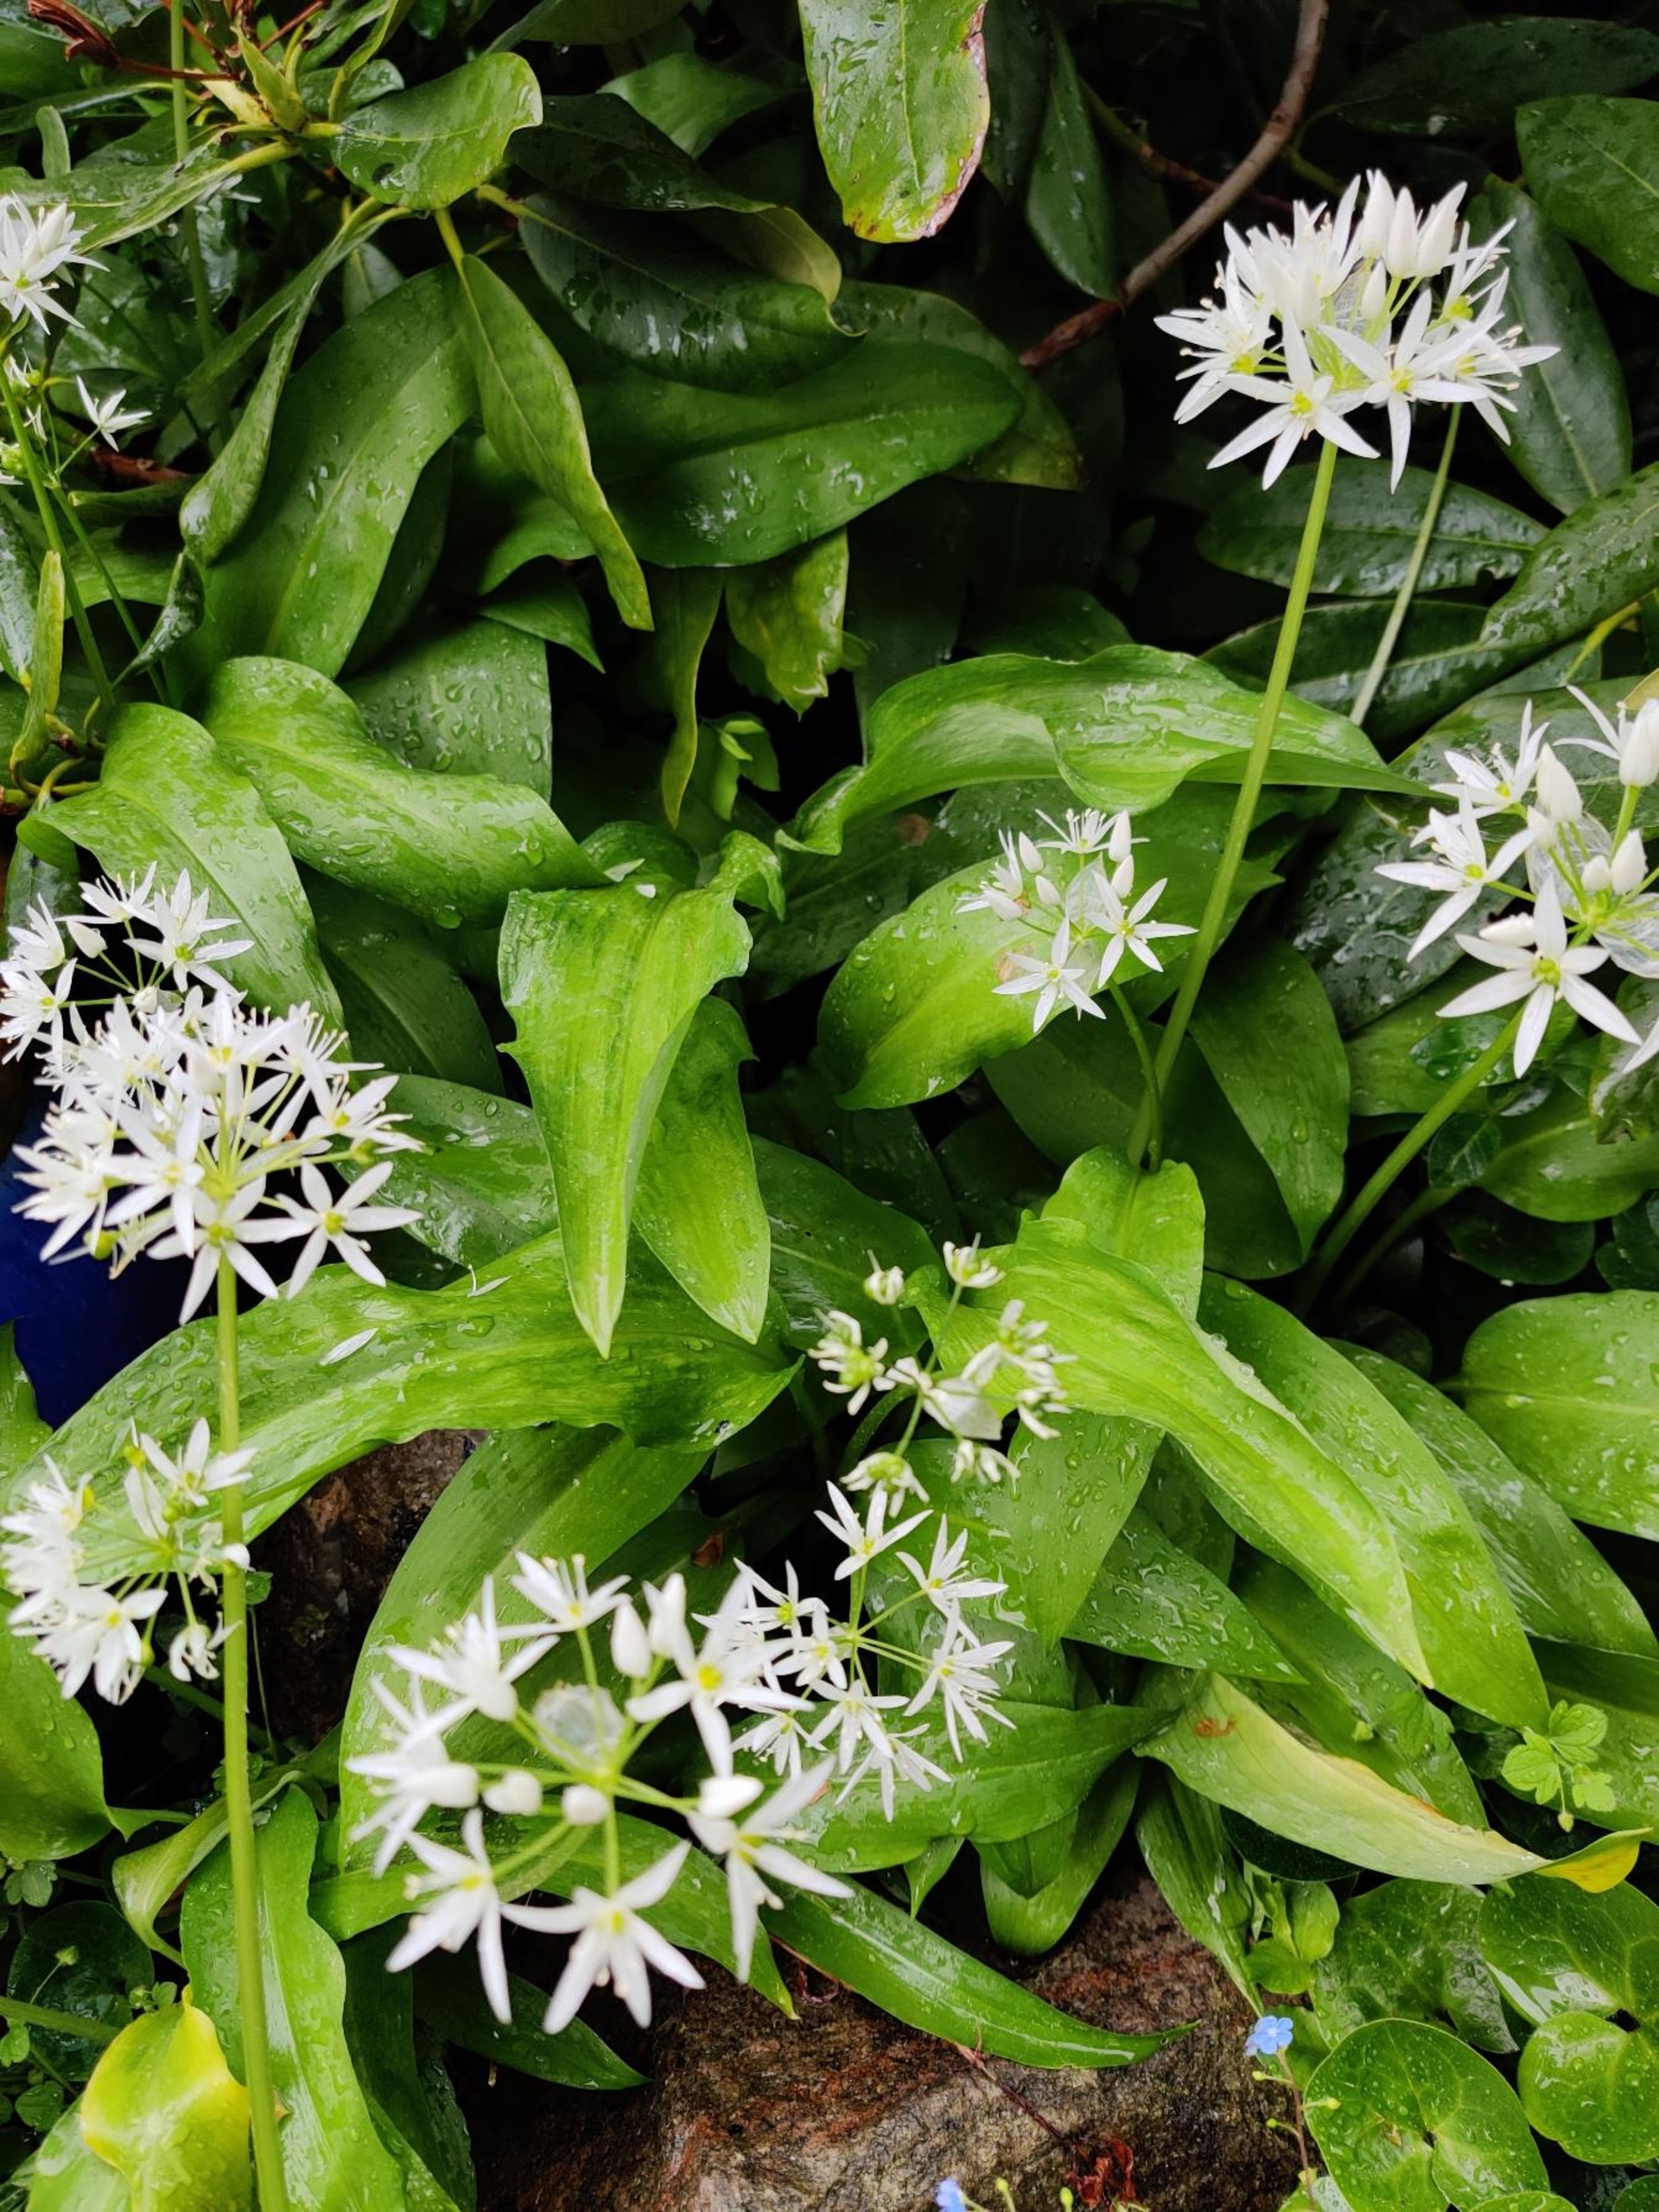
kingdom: Plantae
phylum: Tracheophyta
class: Liliopsida
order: Asparagales
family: Amaryllidaceae
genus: Allium
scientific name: Allium ursinum
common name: Rams-løg
